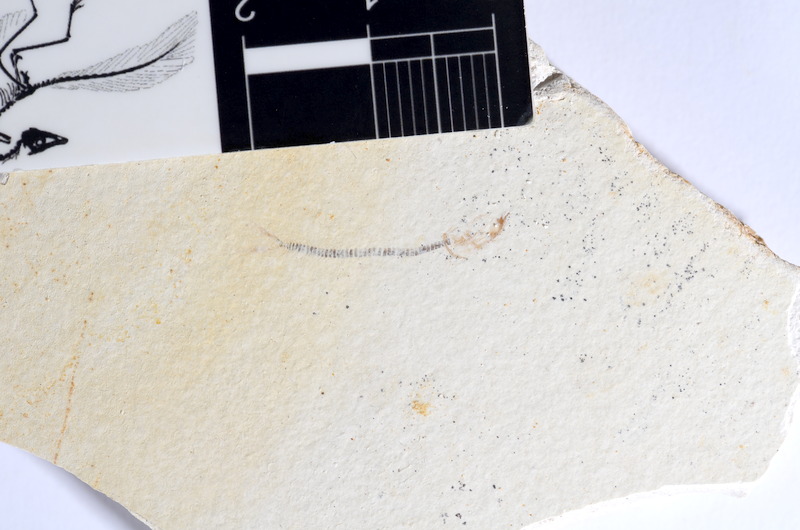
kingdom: Animalia
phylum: Chordata
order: Salmoniformes
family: Orthogonikleithridae
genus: Orthogonikleithrus
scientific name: Orthogonikleithrus hoelli
